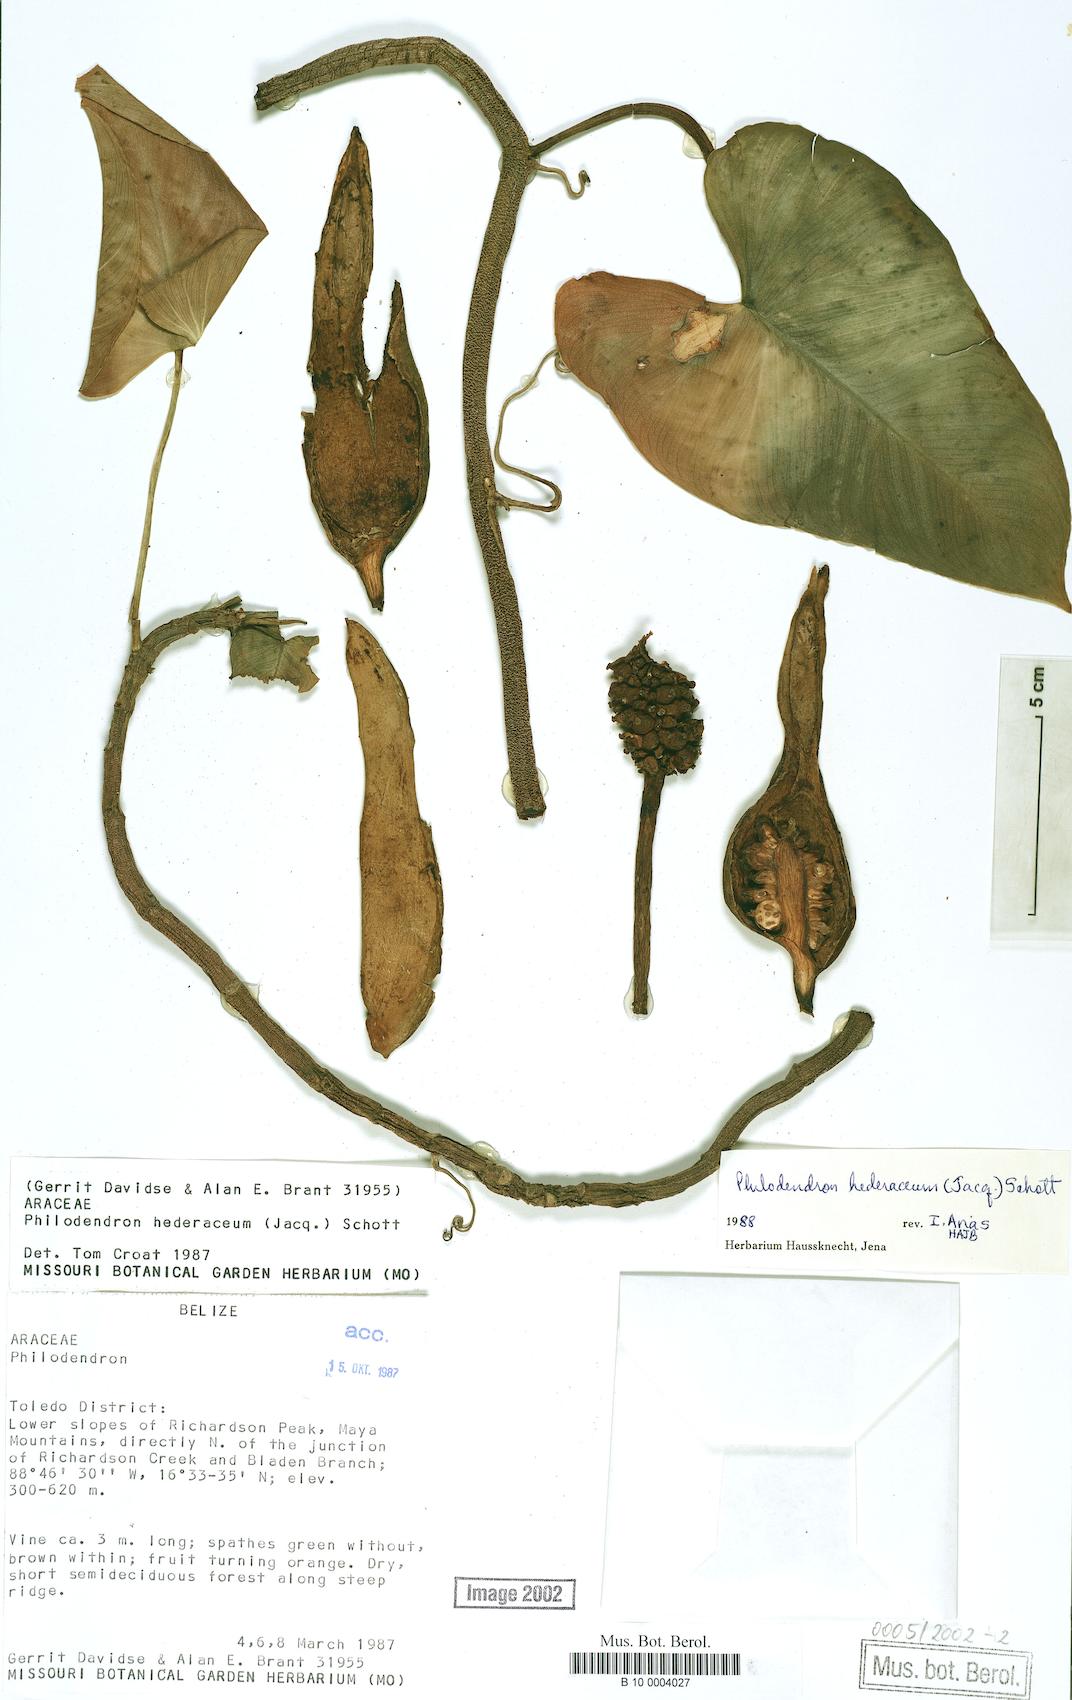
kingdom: Plantae
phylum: Tracheophyta
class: Liliopsida
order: Alismatales
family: Araceae
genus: Philodendron
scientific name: Philodendron hederaceum
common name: Vilevine
